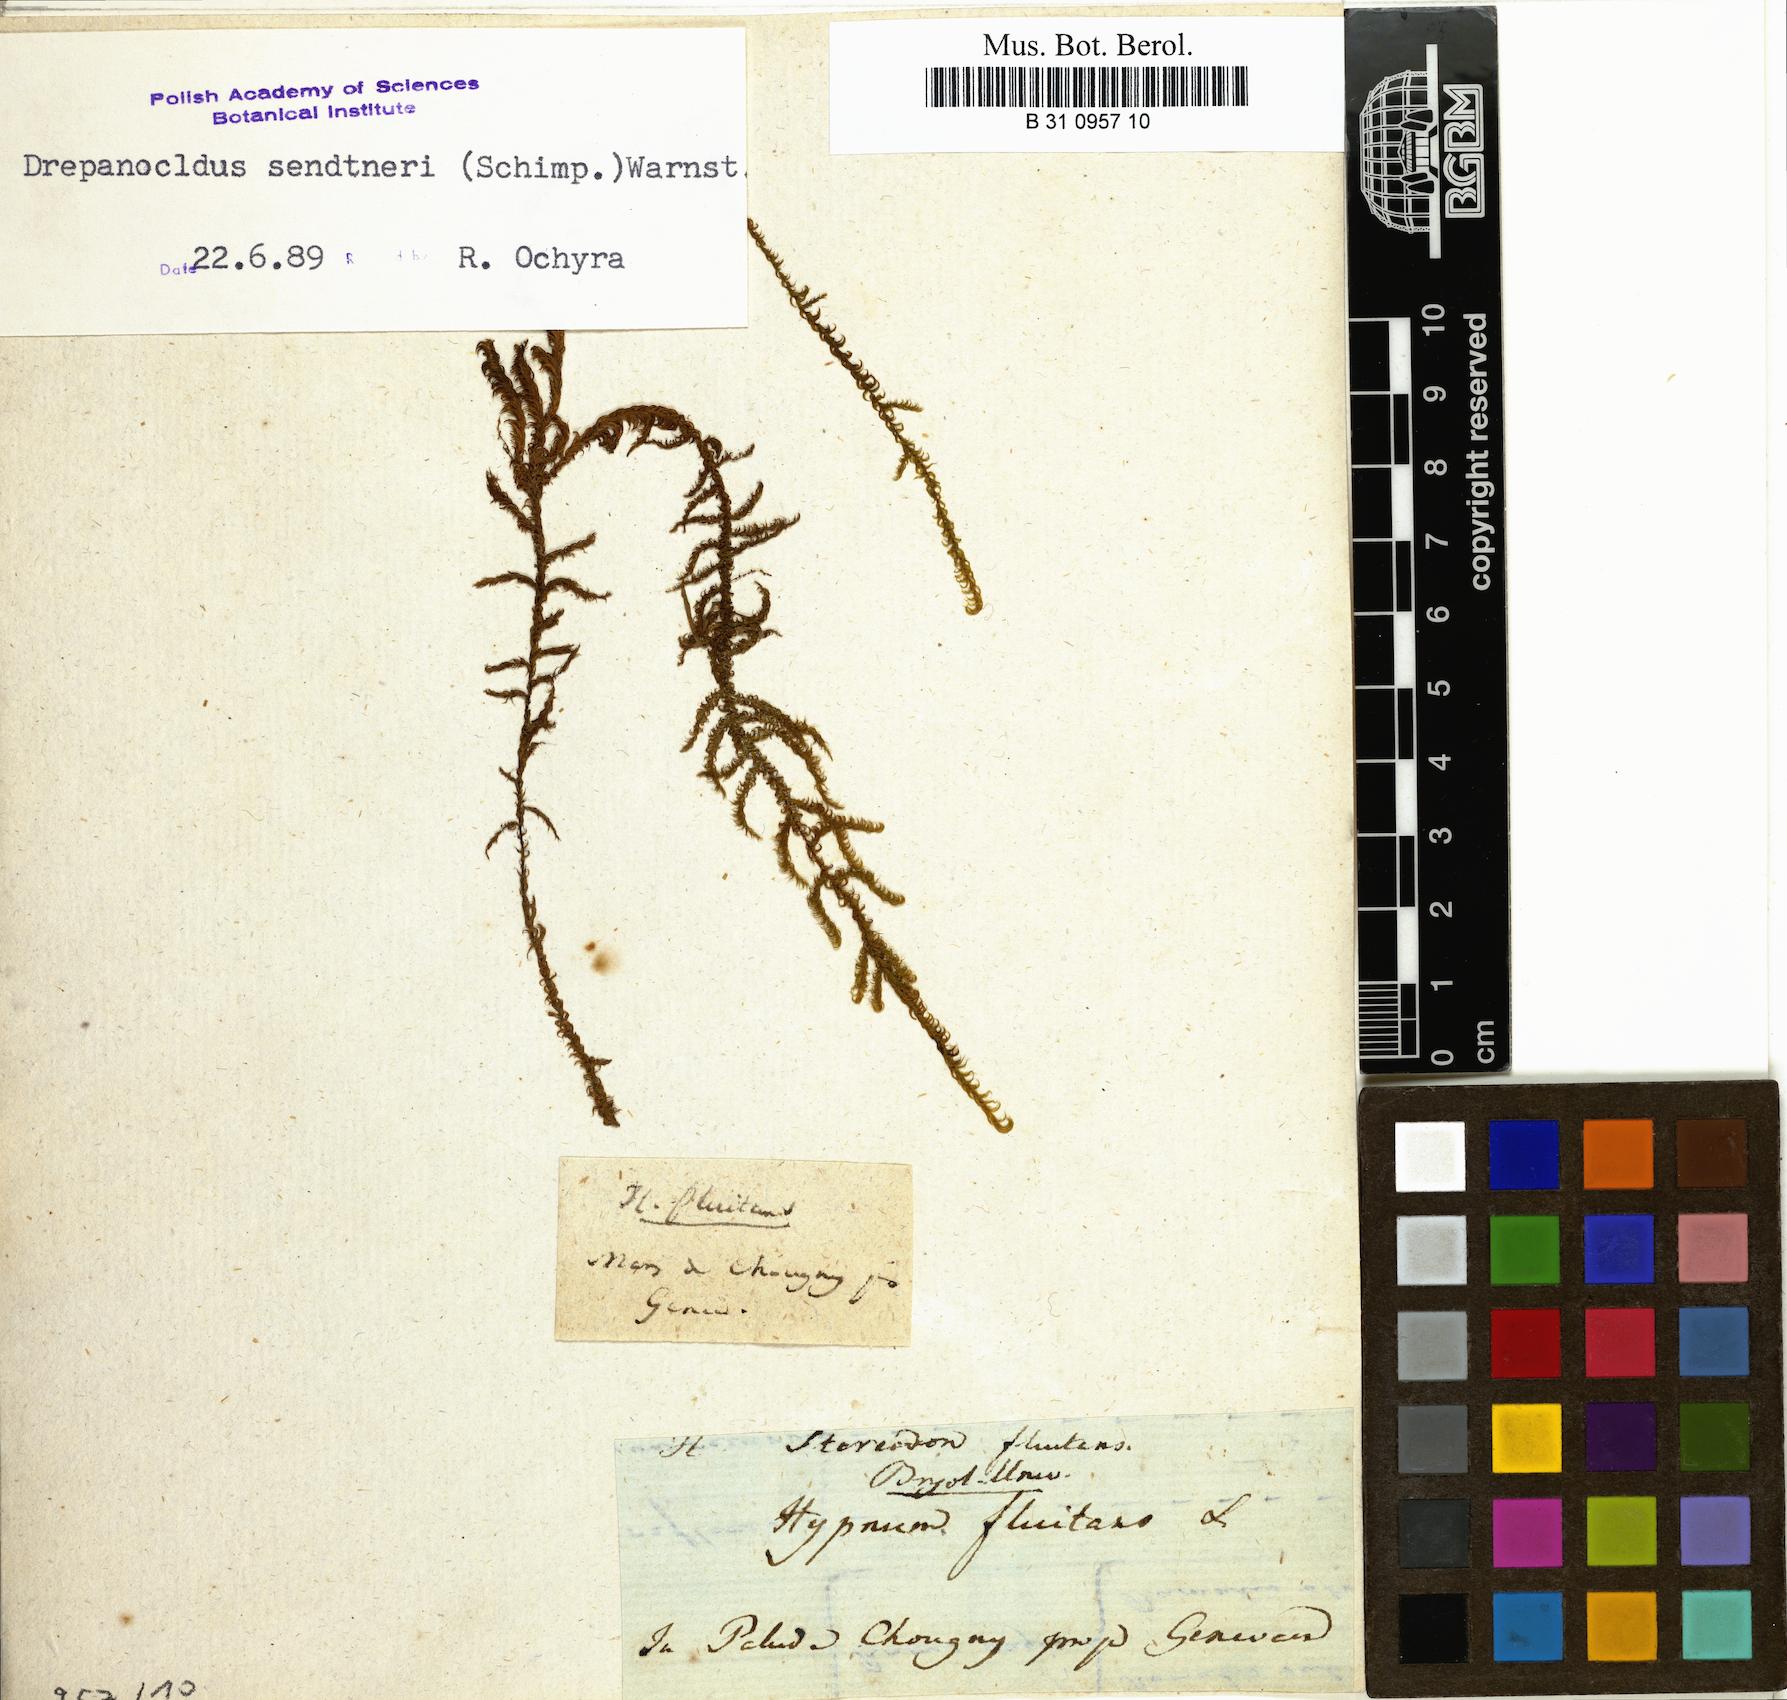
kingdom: Plantae
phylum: Bryophyta
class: Bryopsida
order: Hypnales
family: Calliergonaceae
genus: Warnstorfia
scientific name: Warnstorfia fluitans
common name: Floating hook moss
